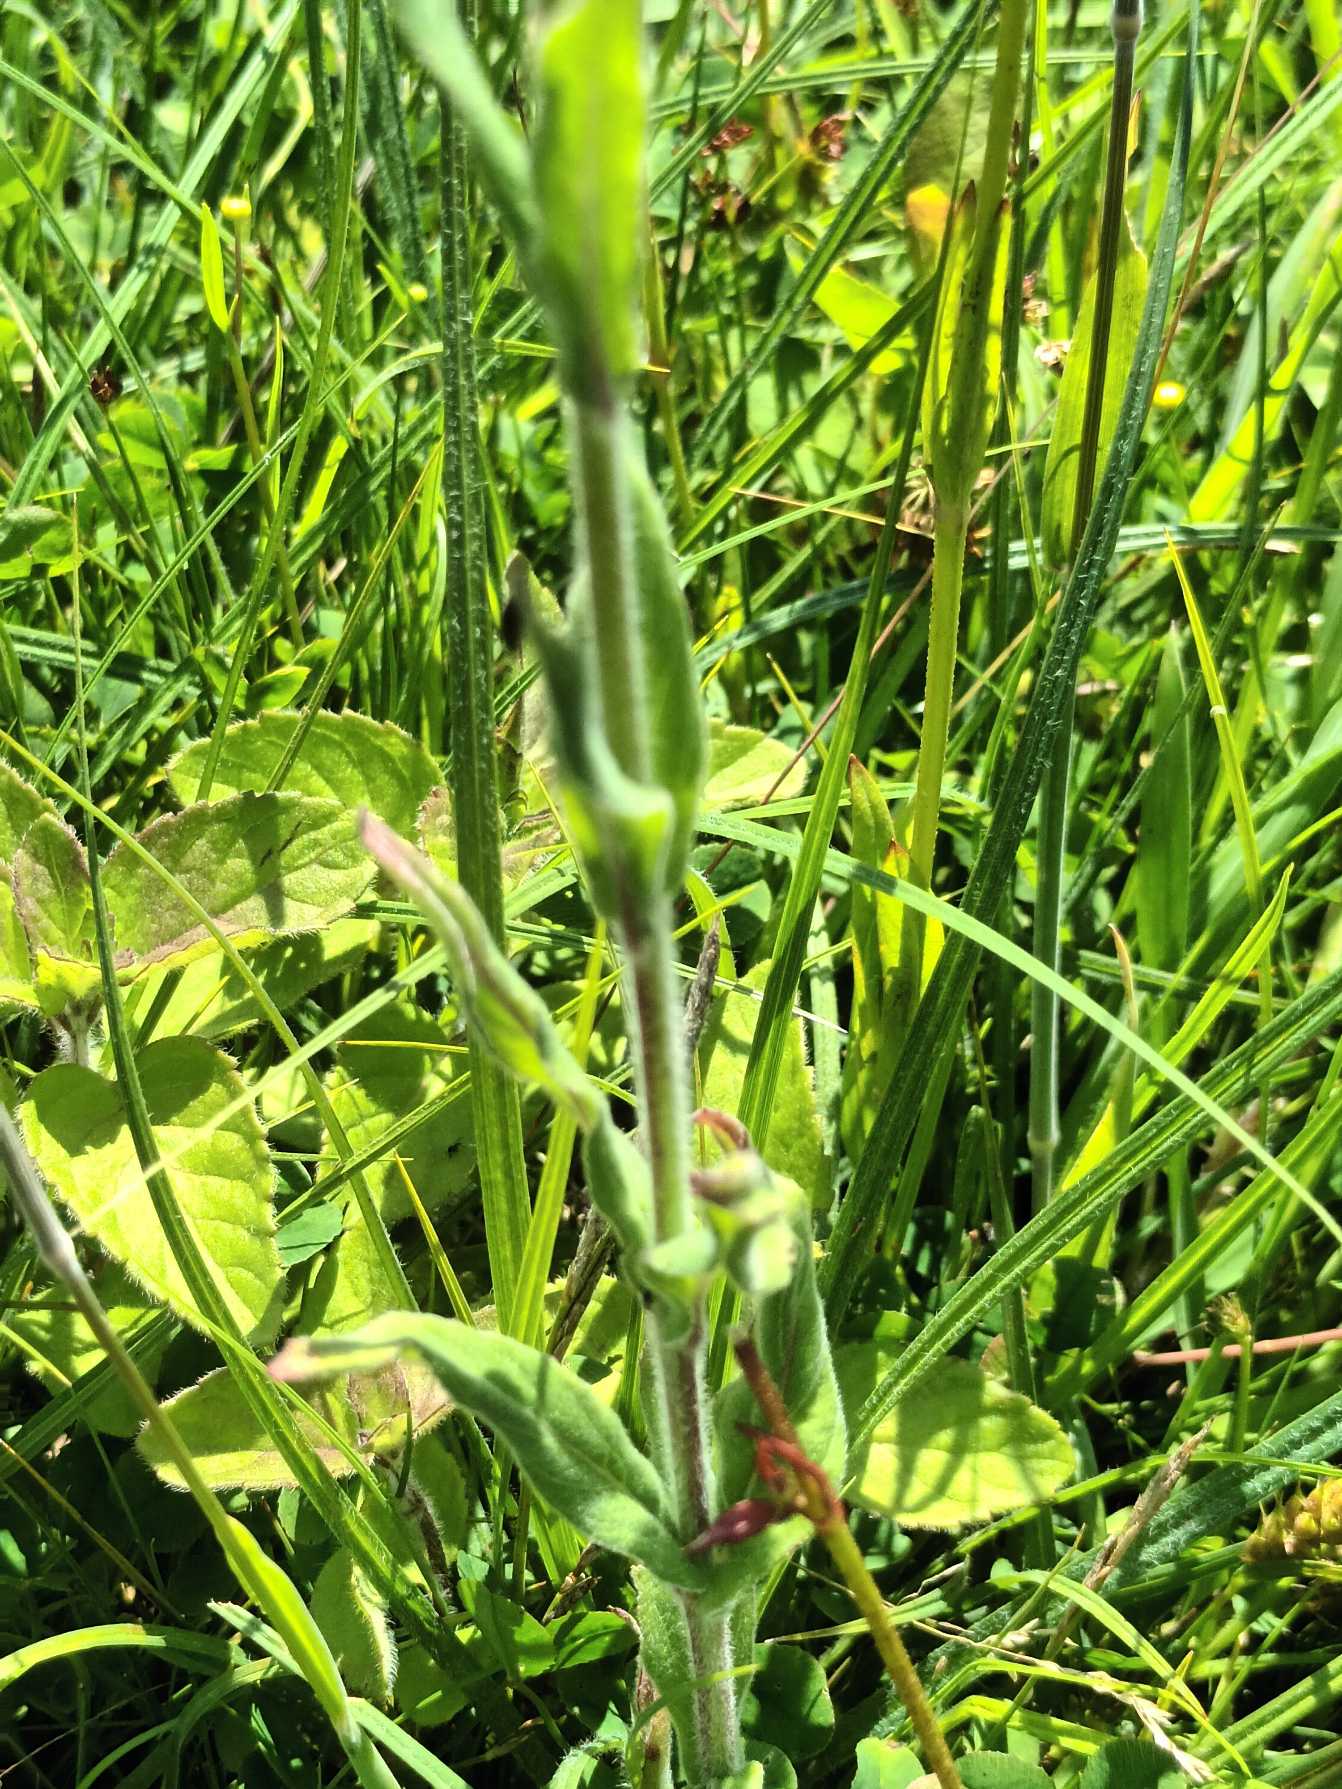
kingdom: Plantae
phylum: Tracheophyta
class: Magnoliopsida
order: Myrtales
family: Onagraceae
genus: Epilobium
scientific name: Epilobium parviflorum
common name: Dunet dueurt
